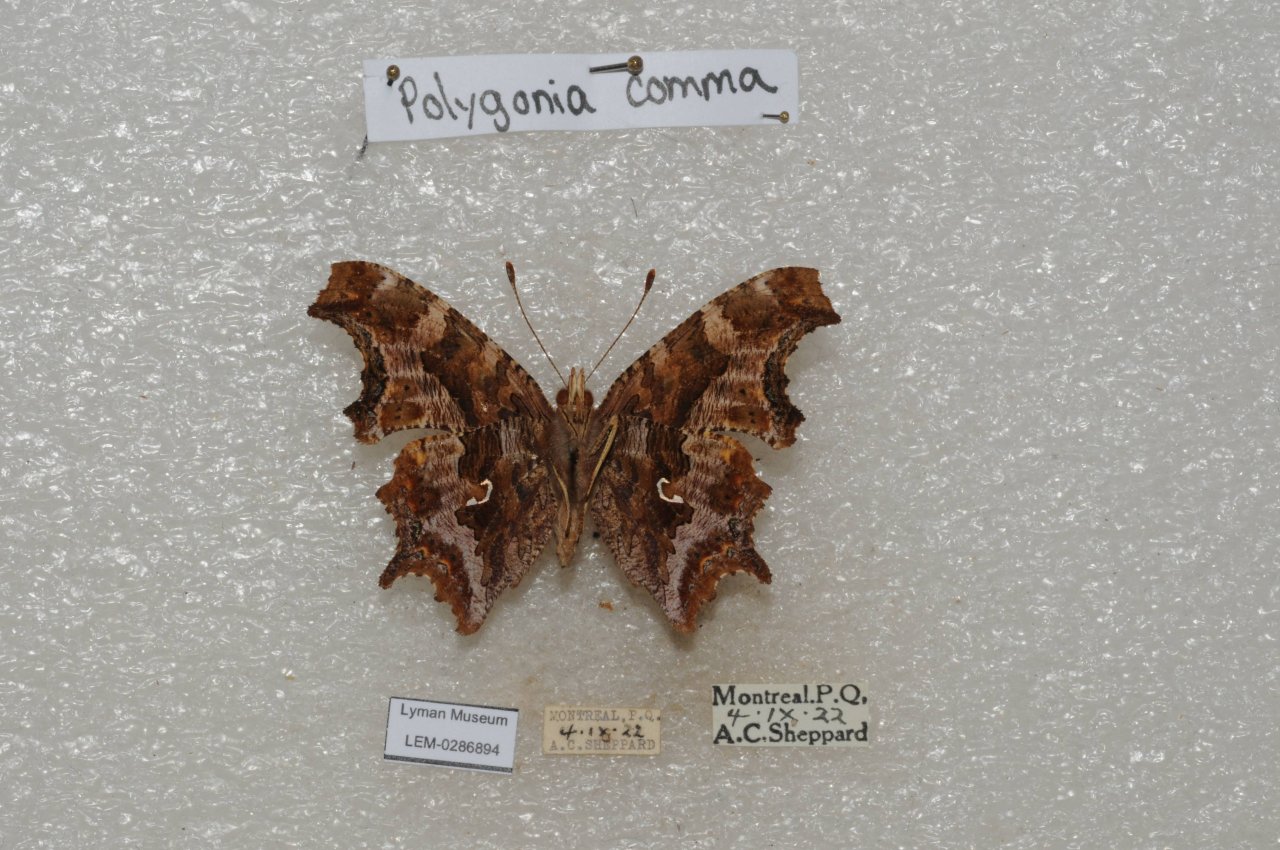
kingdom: Animalia
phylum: Arthropoda
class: Insecta
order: Lepidoptera
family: Nymphalidae
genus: Polygonia
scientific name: Polygonia comma
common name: Eastern Comma
